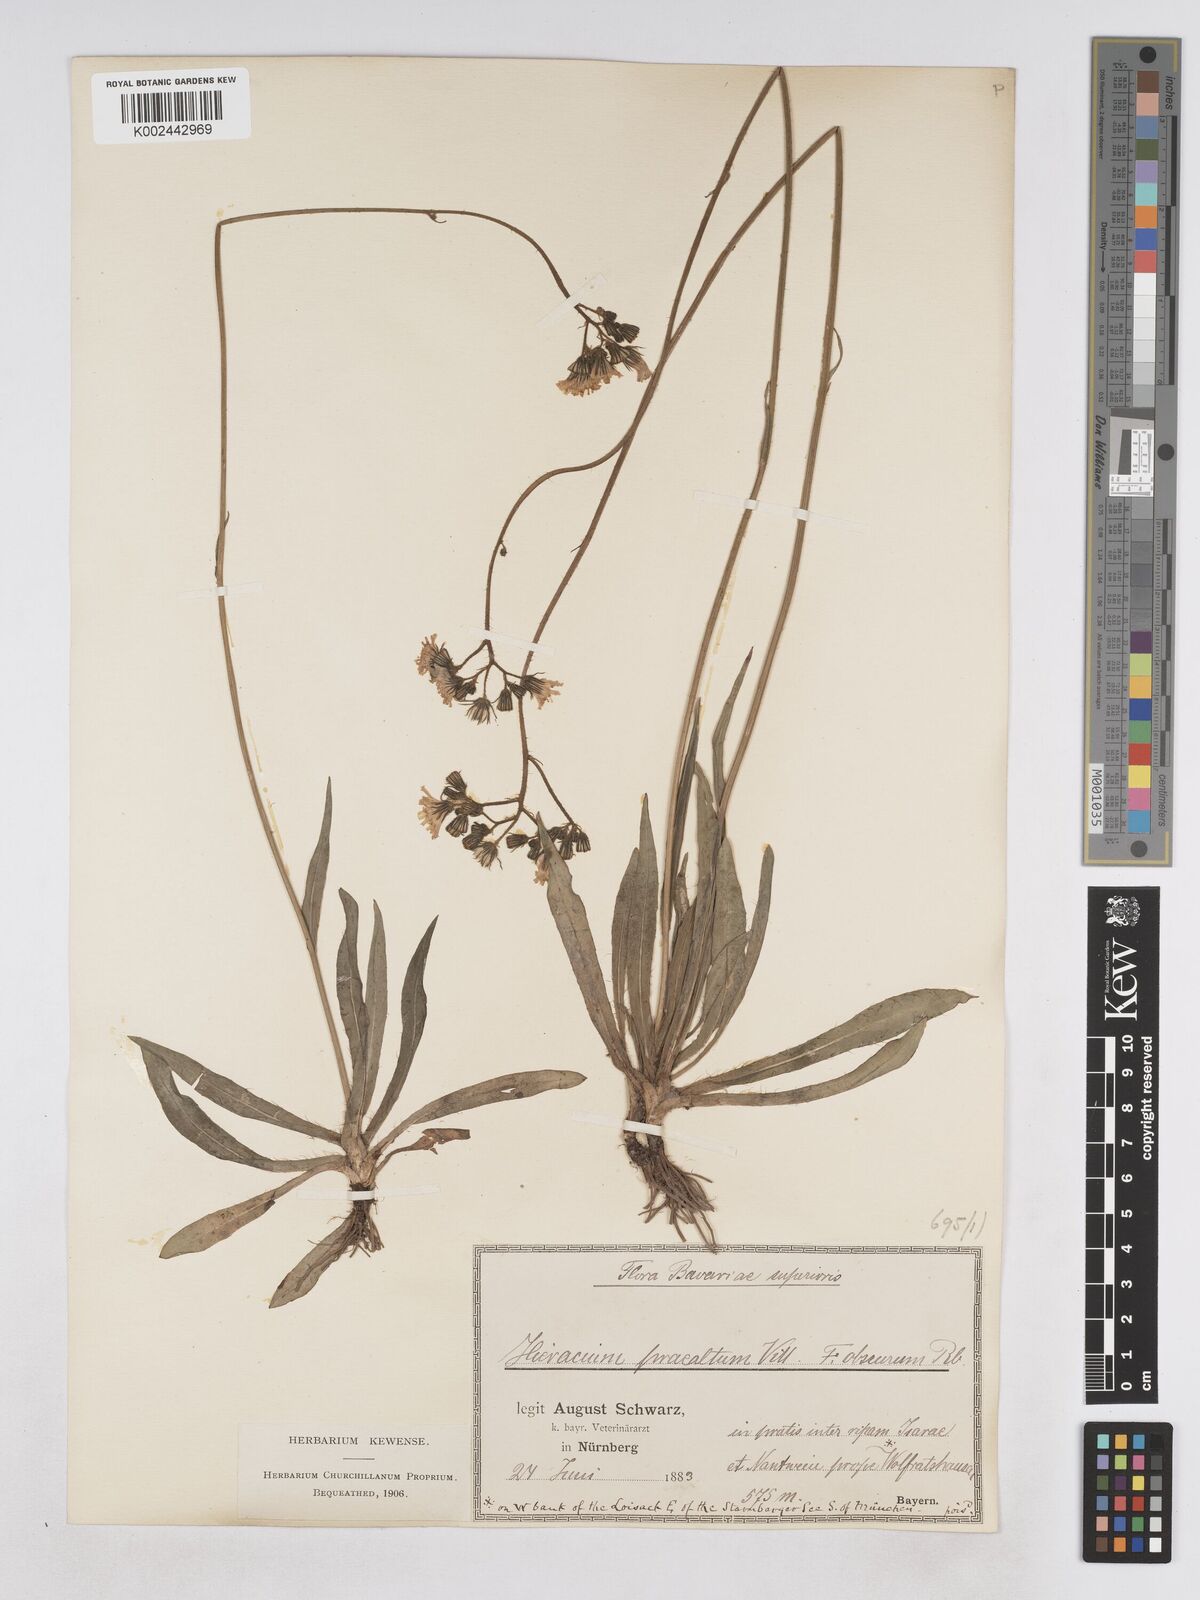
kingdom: Plantae
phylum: Tracheophyta
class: Magnoliopsida
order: Asterales
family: Asteraceae
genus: Pilosella
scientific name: Pilosella piloselloides
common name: Glaucous king-devil
